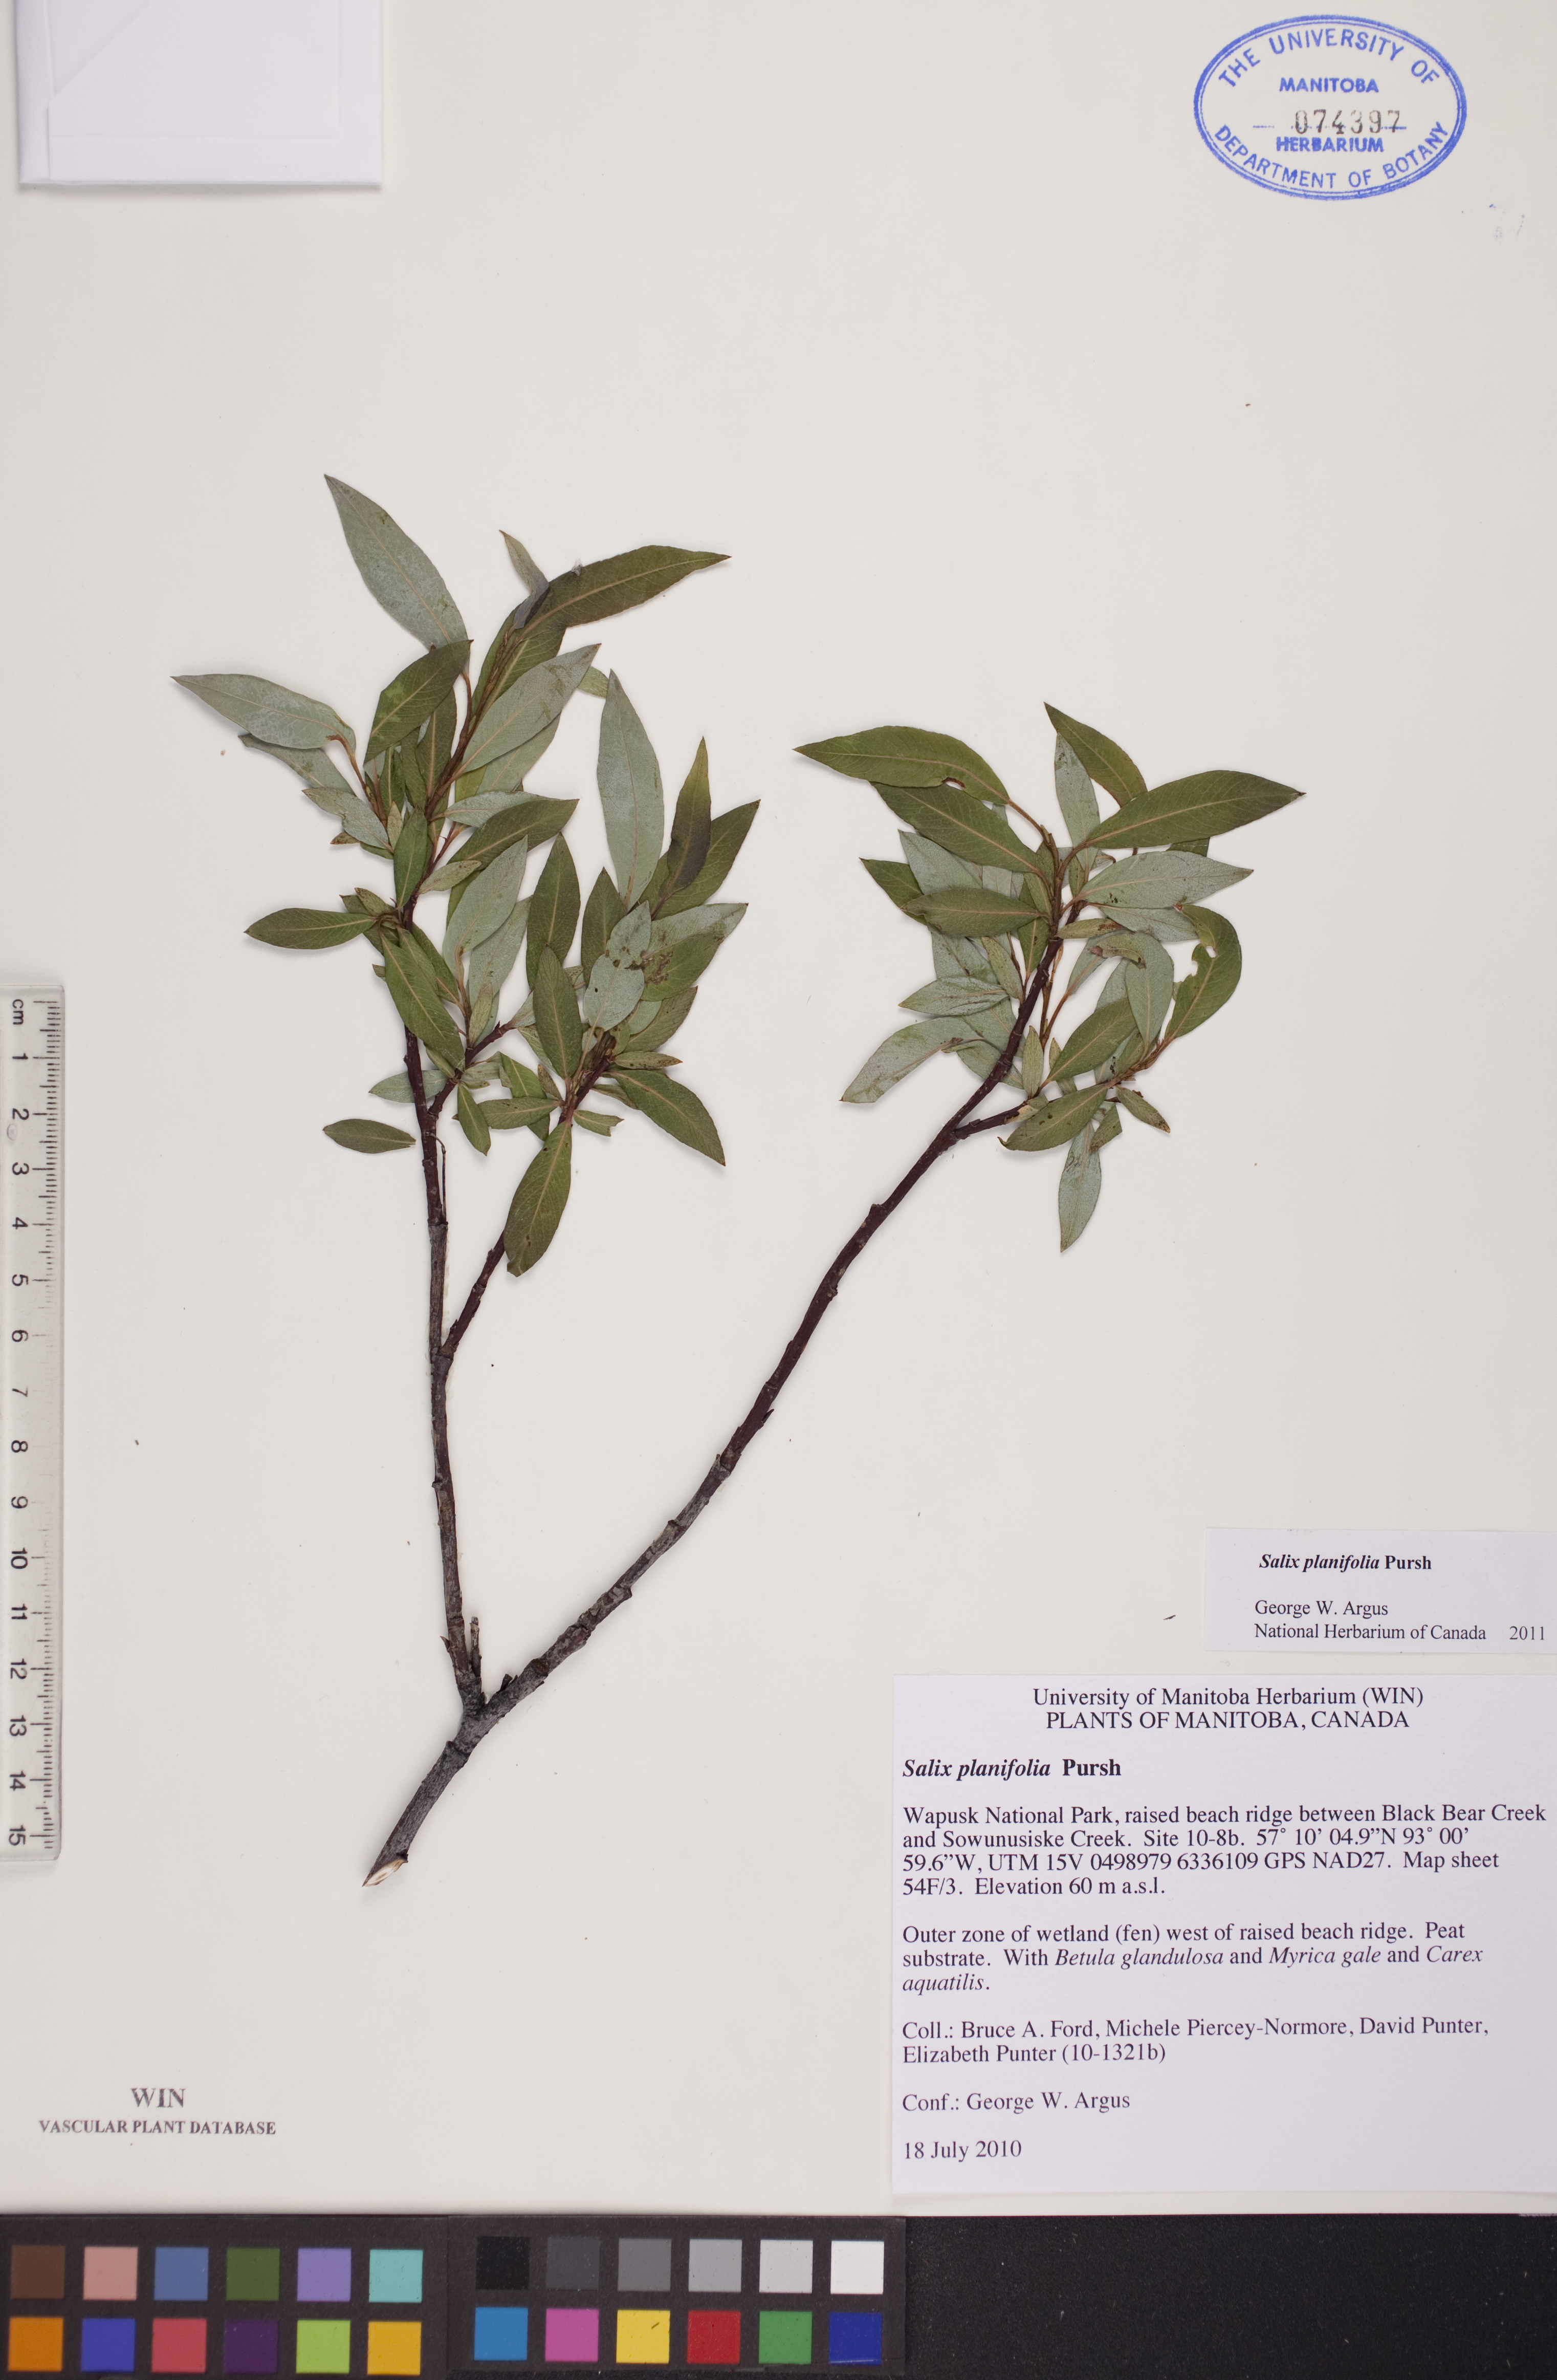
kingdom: Plantae
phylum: Tracheophyta
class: Magnoliopsida
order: Malpighiales
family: Salicaceae
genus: Salix
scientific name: Salix planifolia
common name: Mountain willow
